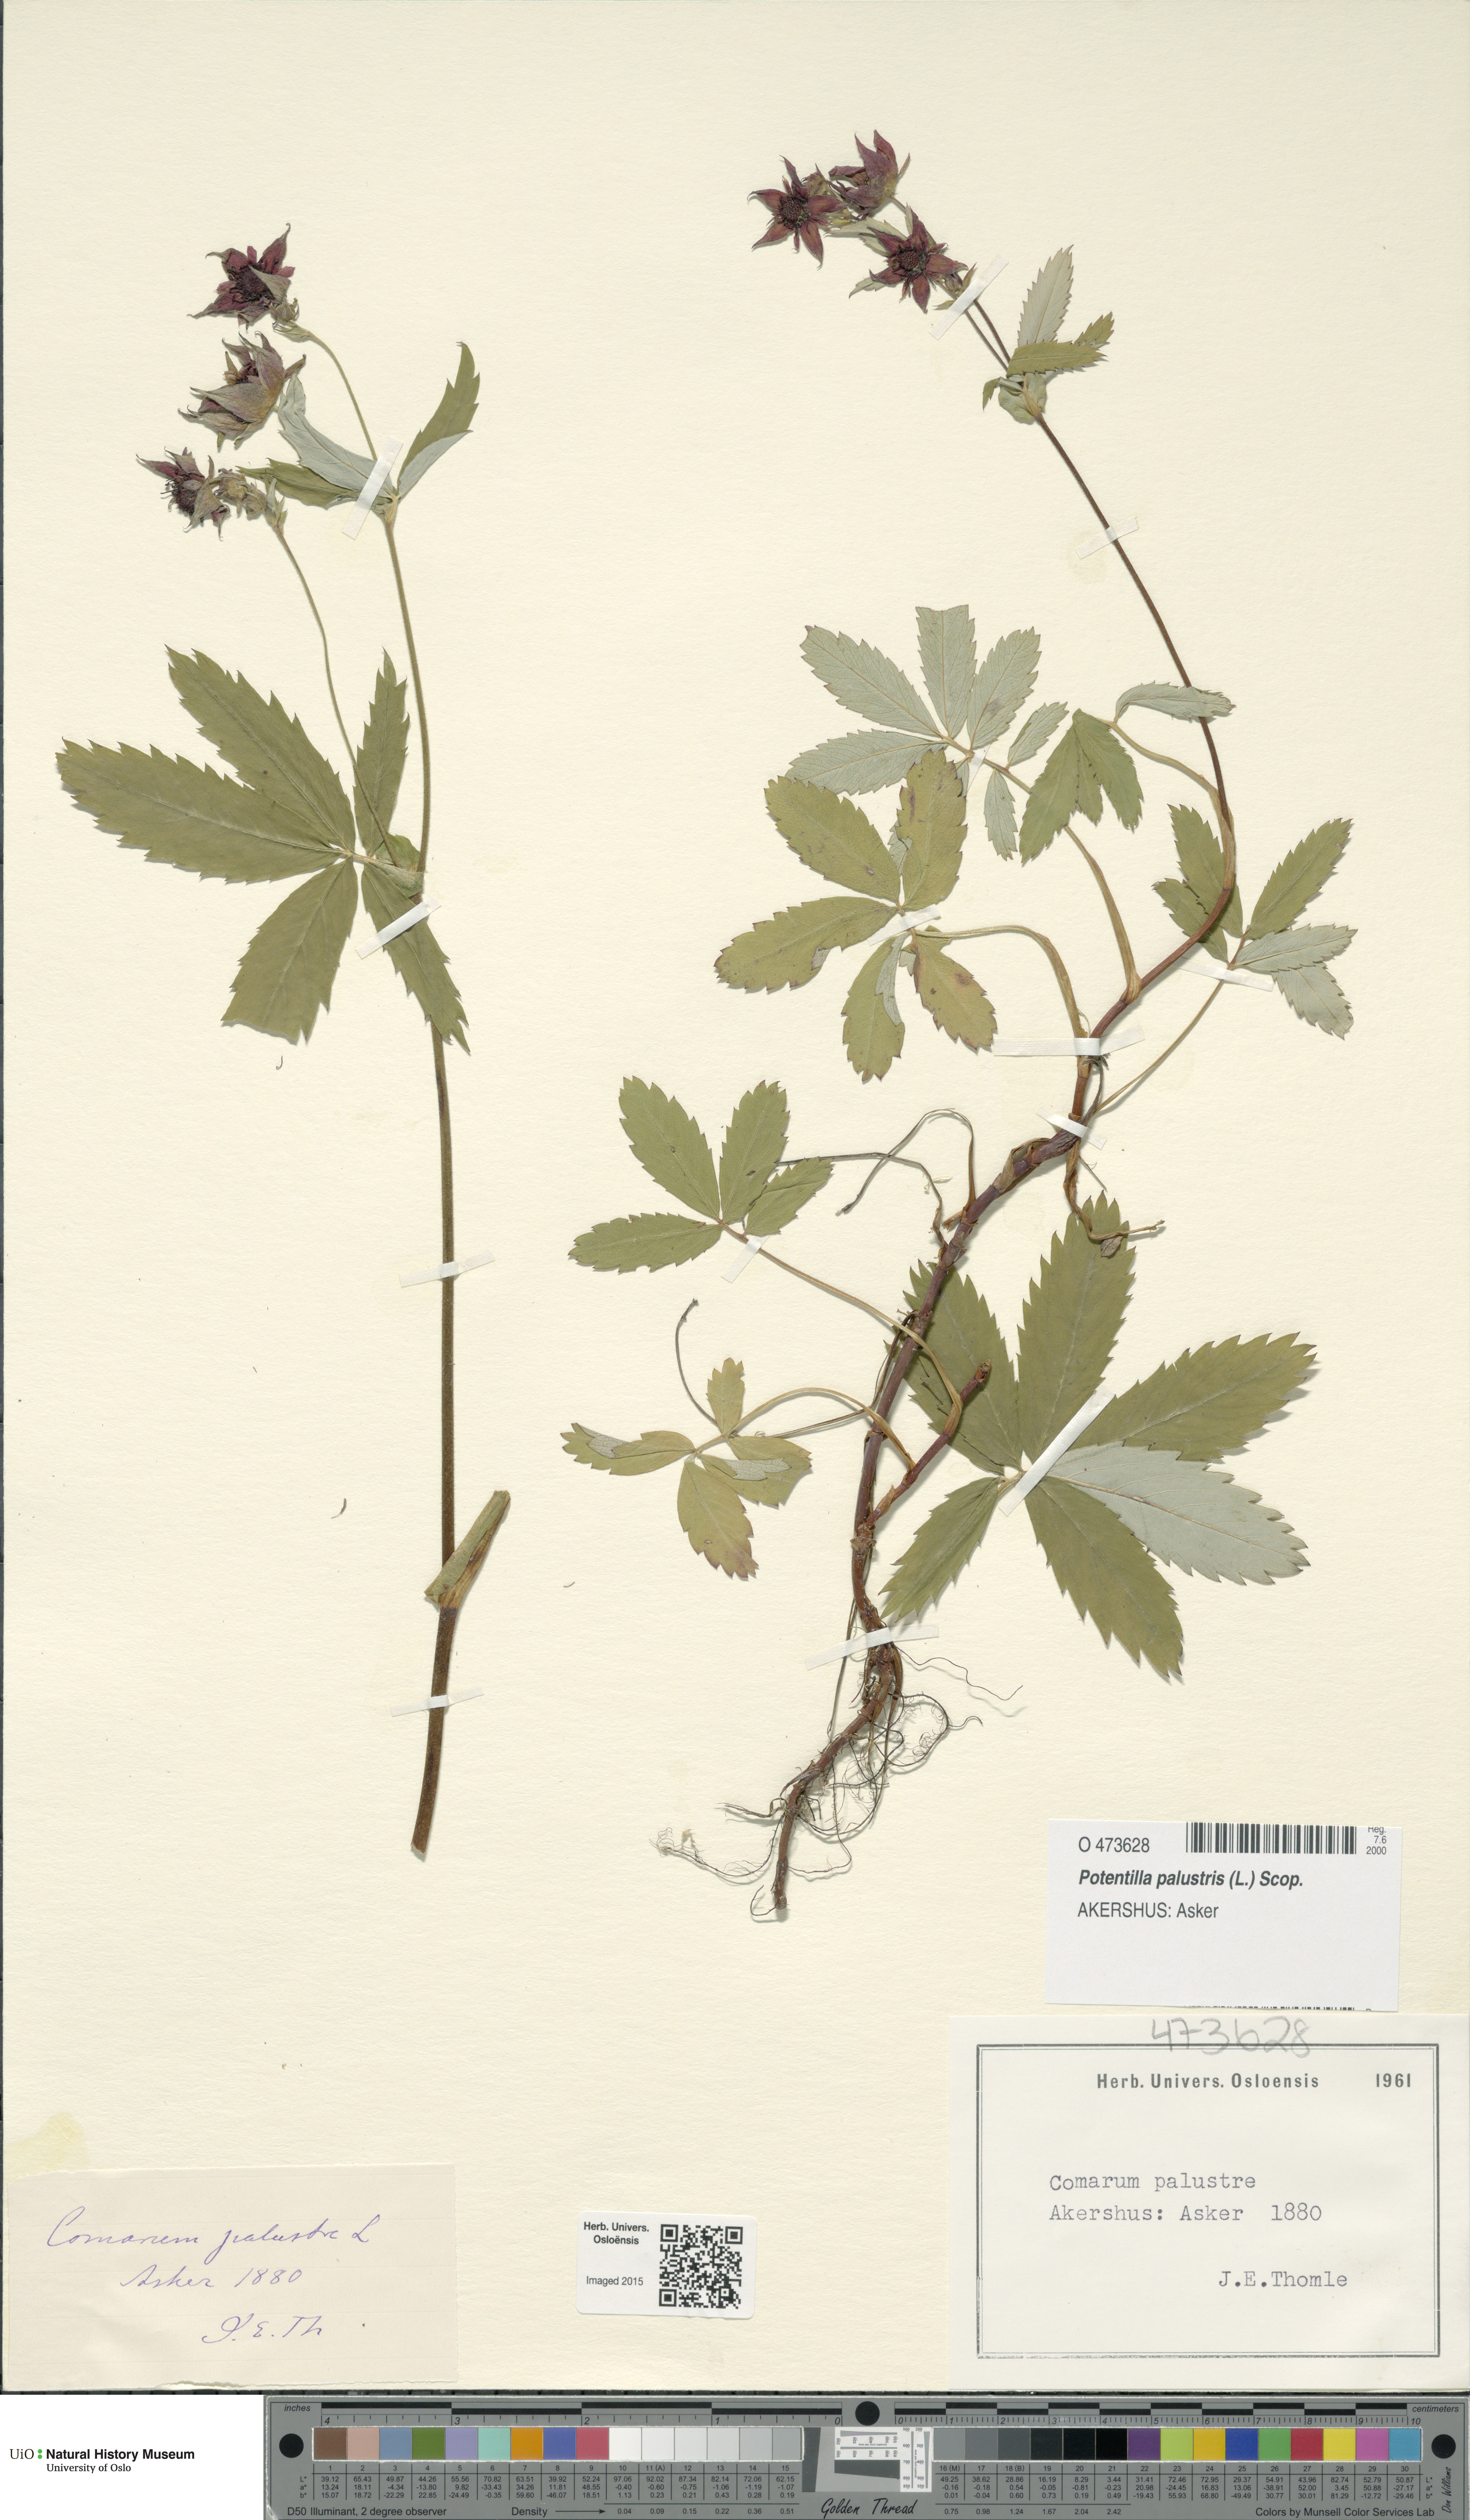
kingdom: Plantae
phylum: Tracheophyta
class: Magnoliopsida
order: Rosales
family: Rosaceae
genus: Comarum
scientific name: Comarum palustre
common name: Marsh cinquefoil
